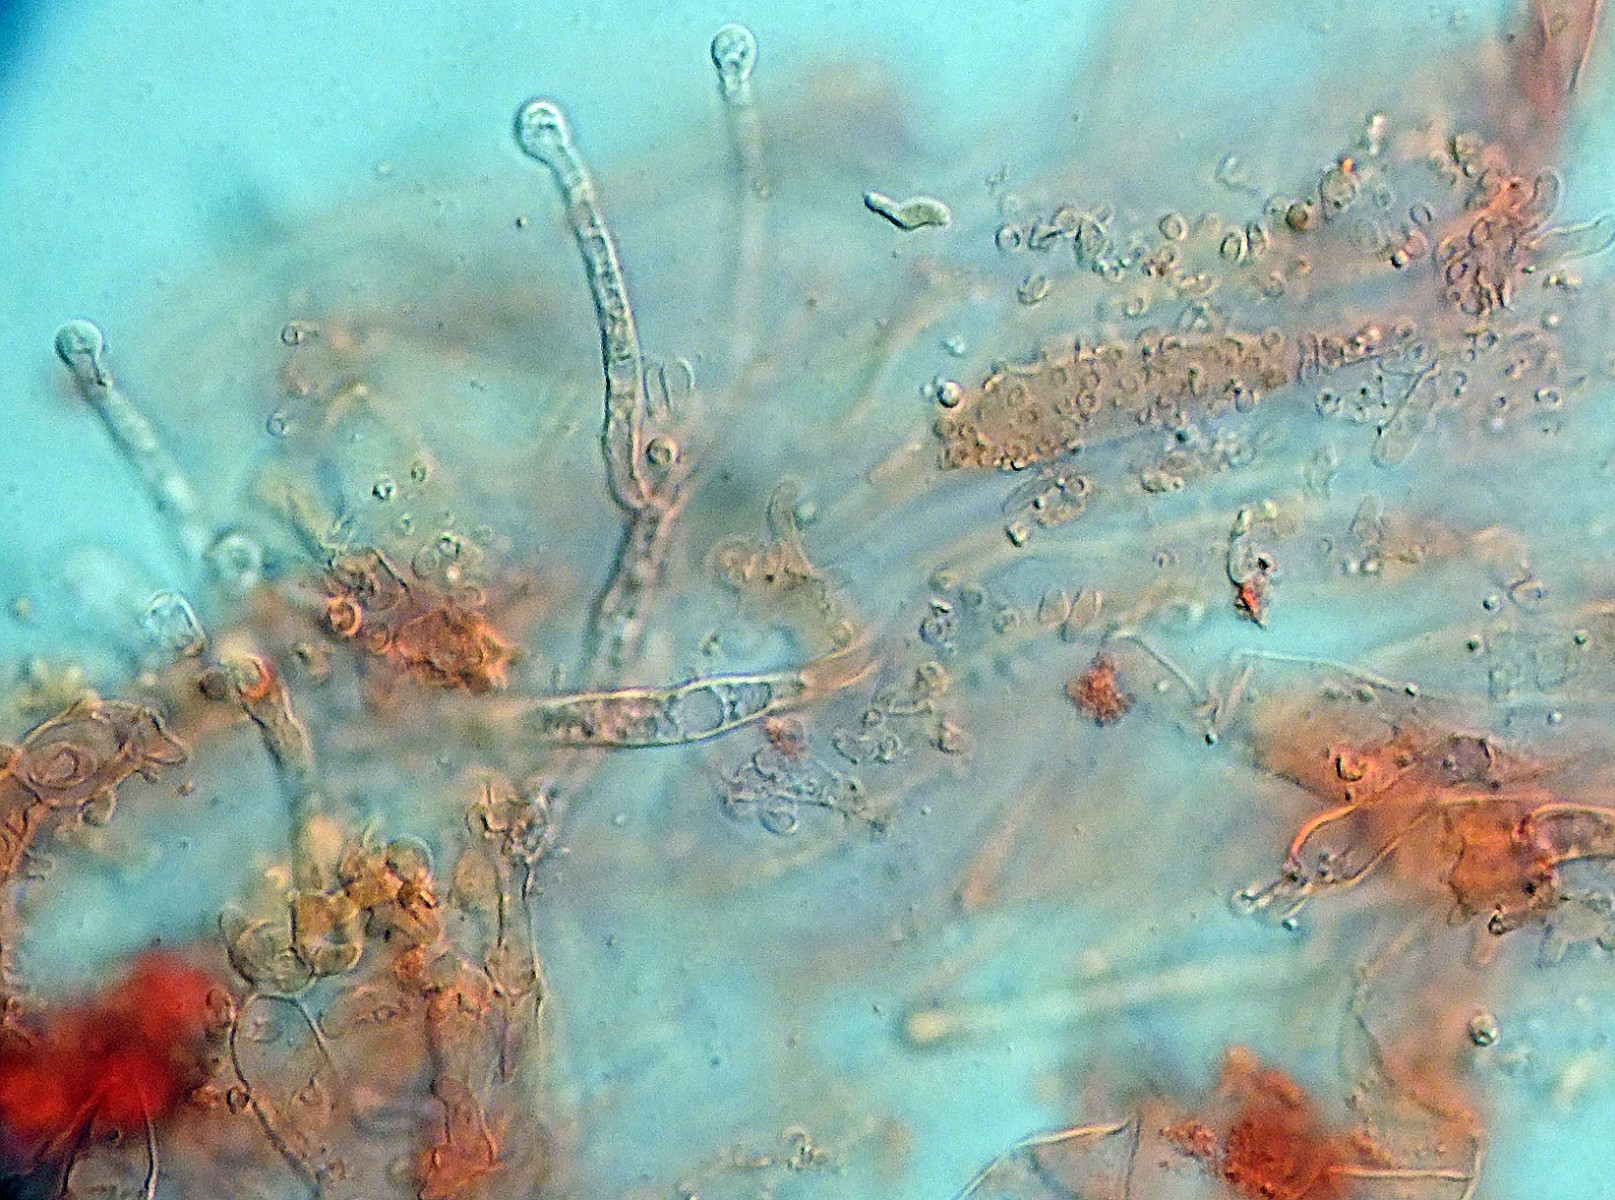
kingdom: Fungi
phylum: Basidiomycota
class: Agaricomycetes
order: Agaricales
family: Mycenaceae
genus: Hemimycena
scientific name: Hemimycena mauretanica
